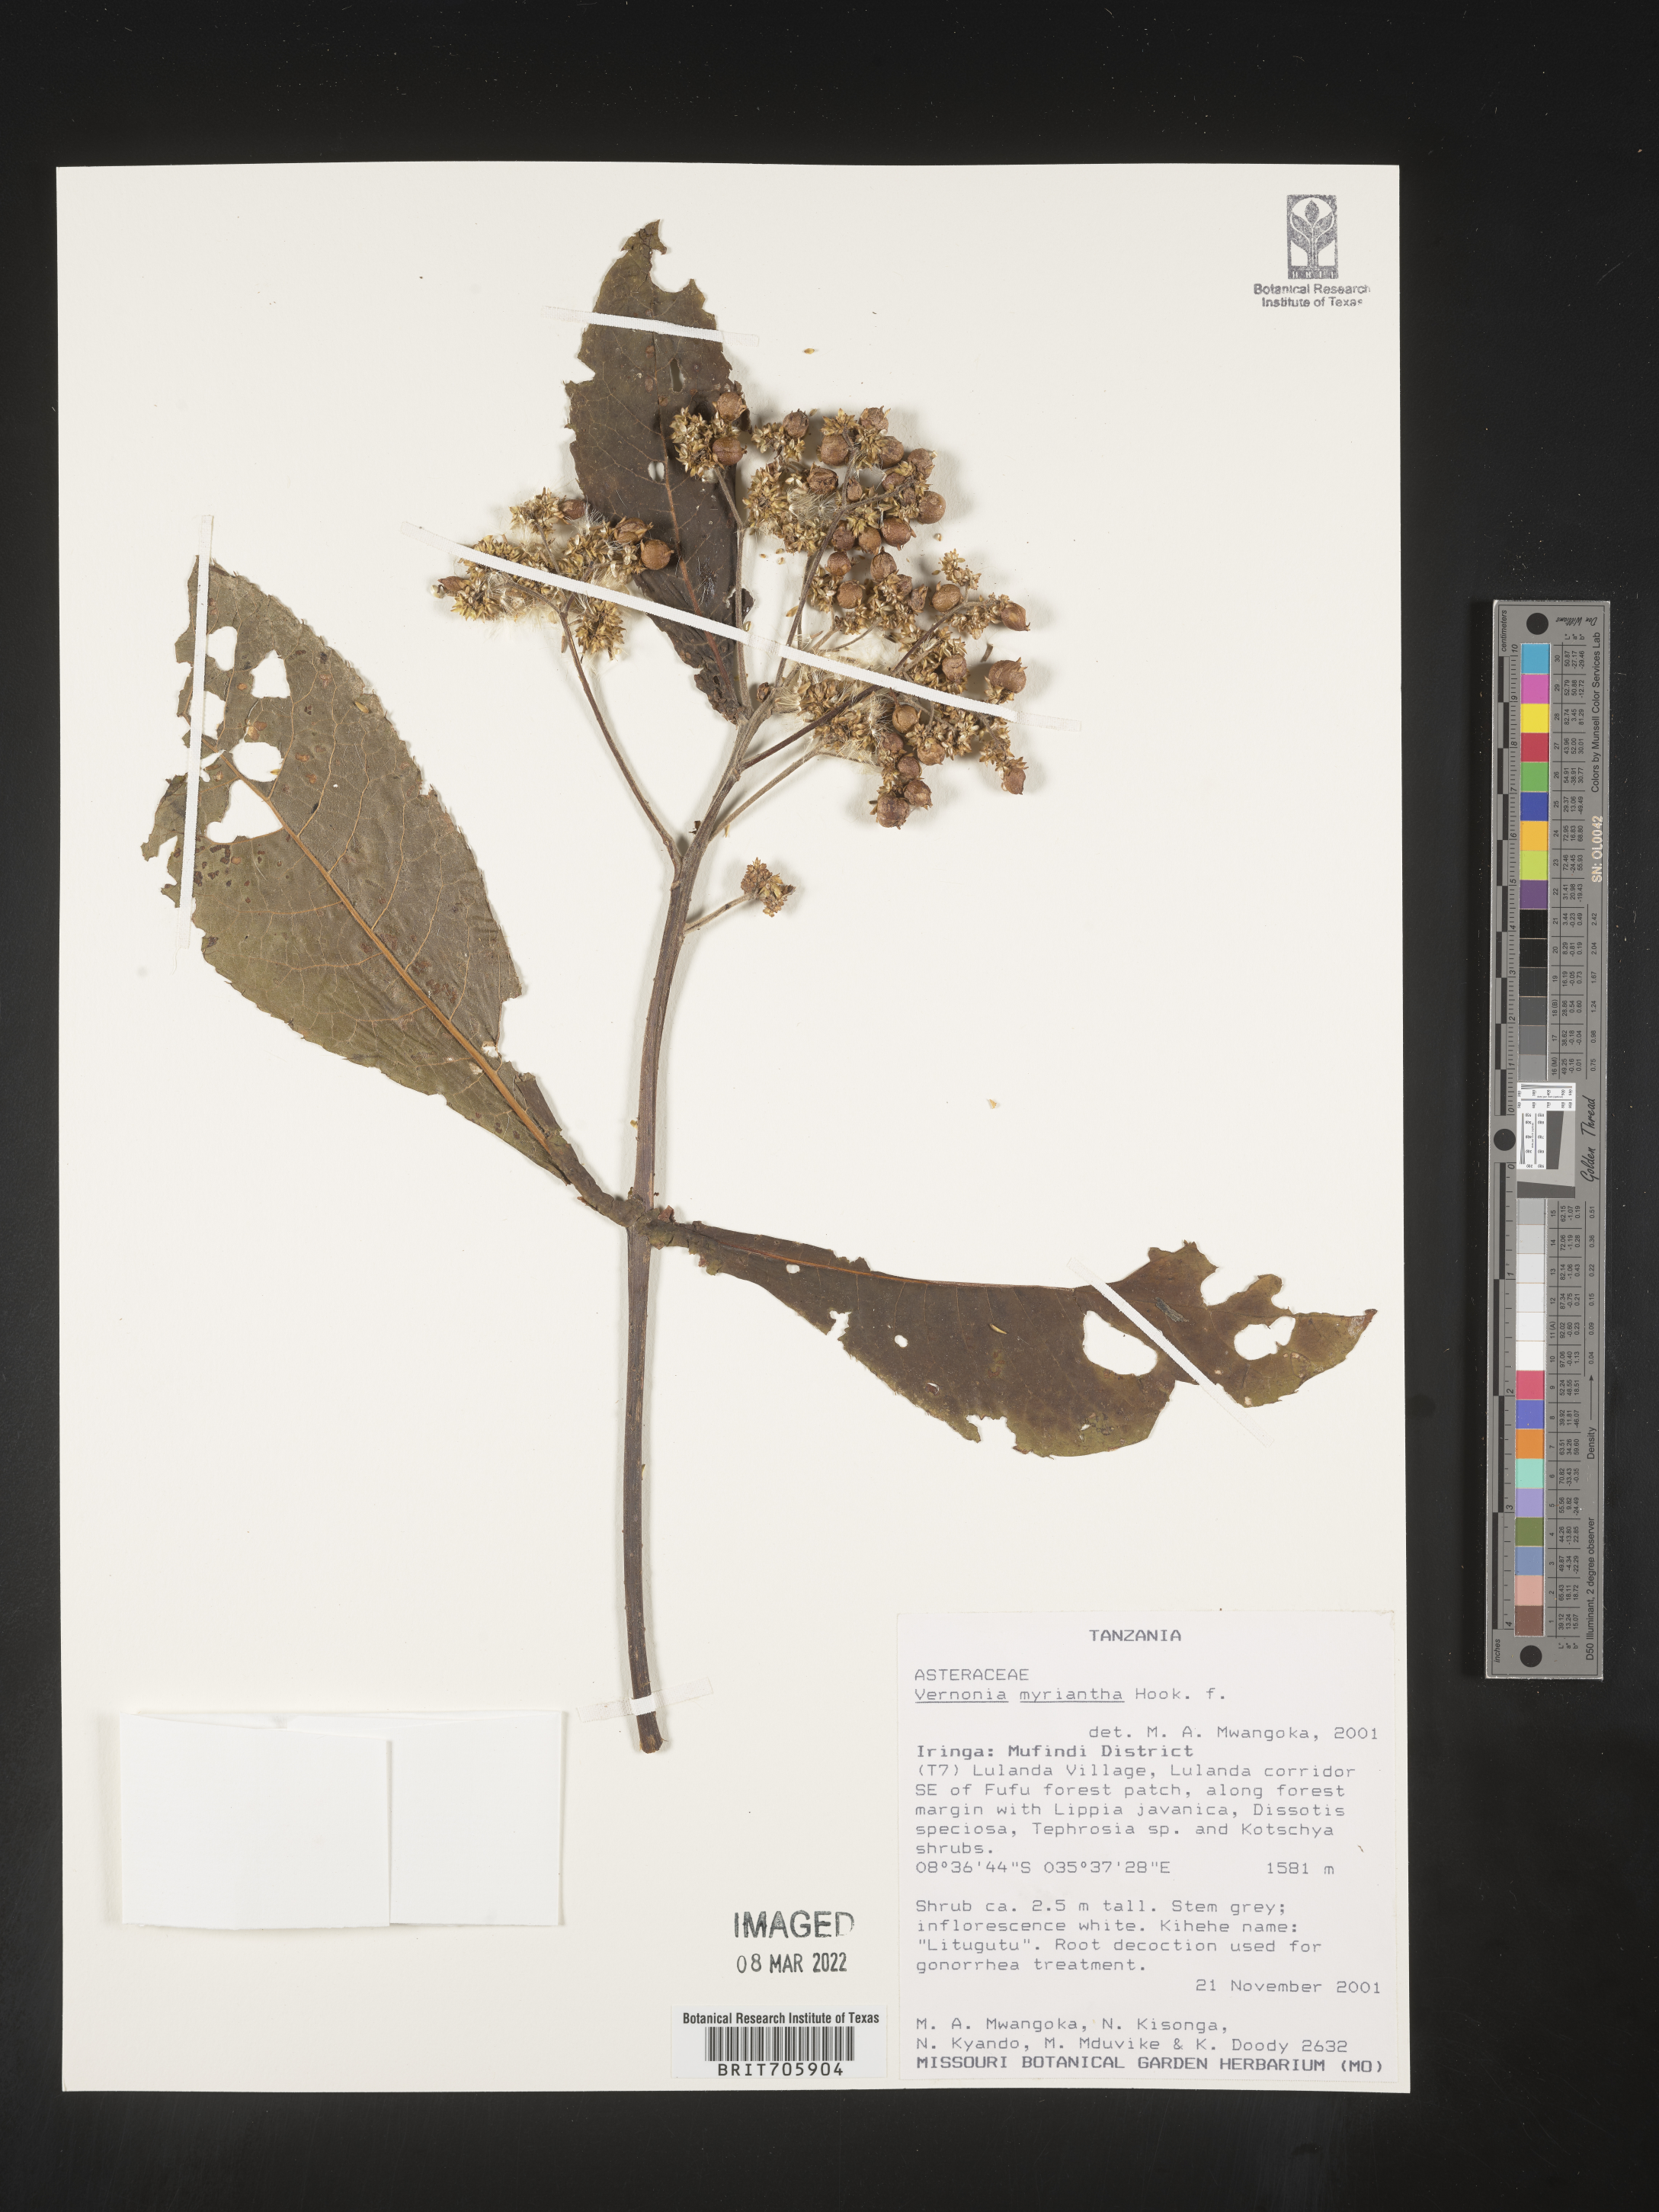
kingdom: Plantae
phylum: Tracheophyta
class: Magnoliopsida
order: Asterales
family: Asteraceae
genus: Vernonia
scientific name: Vernonia
